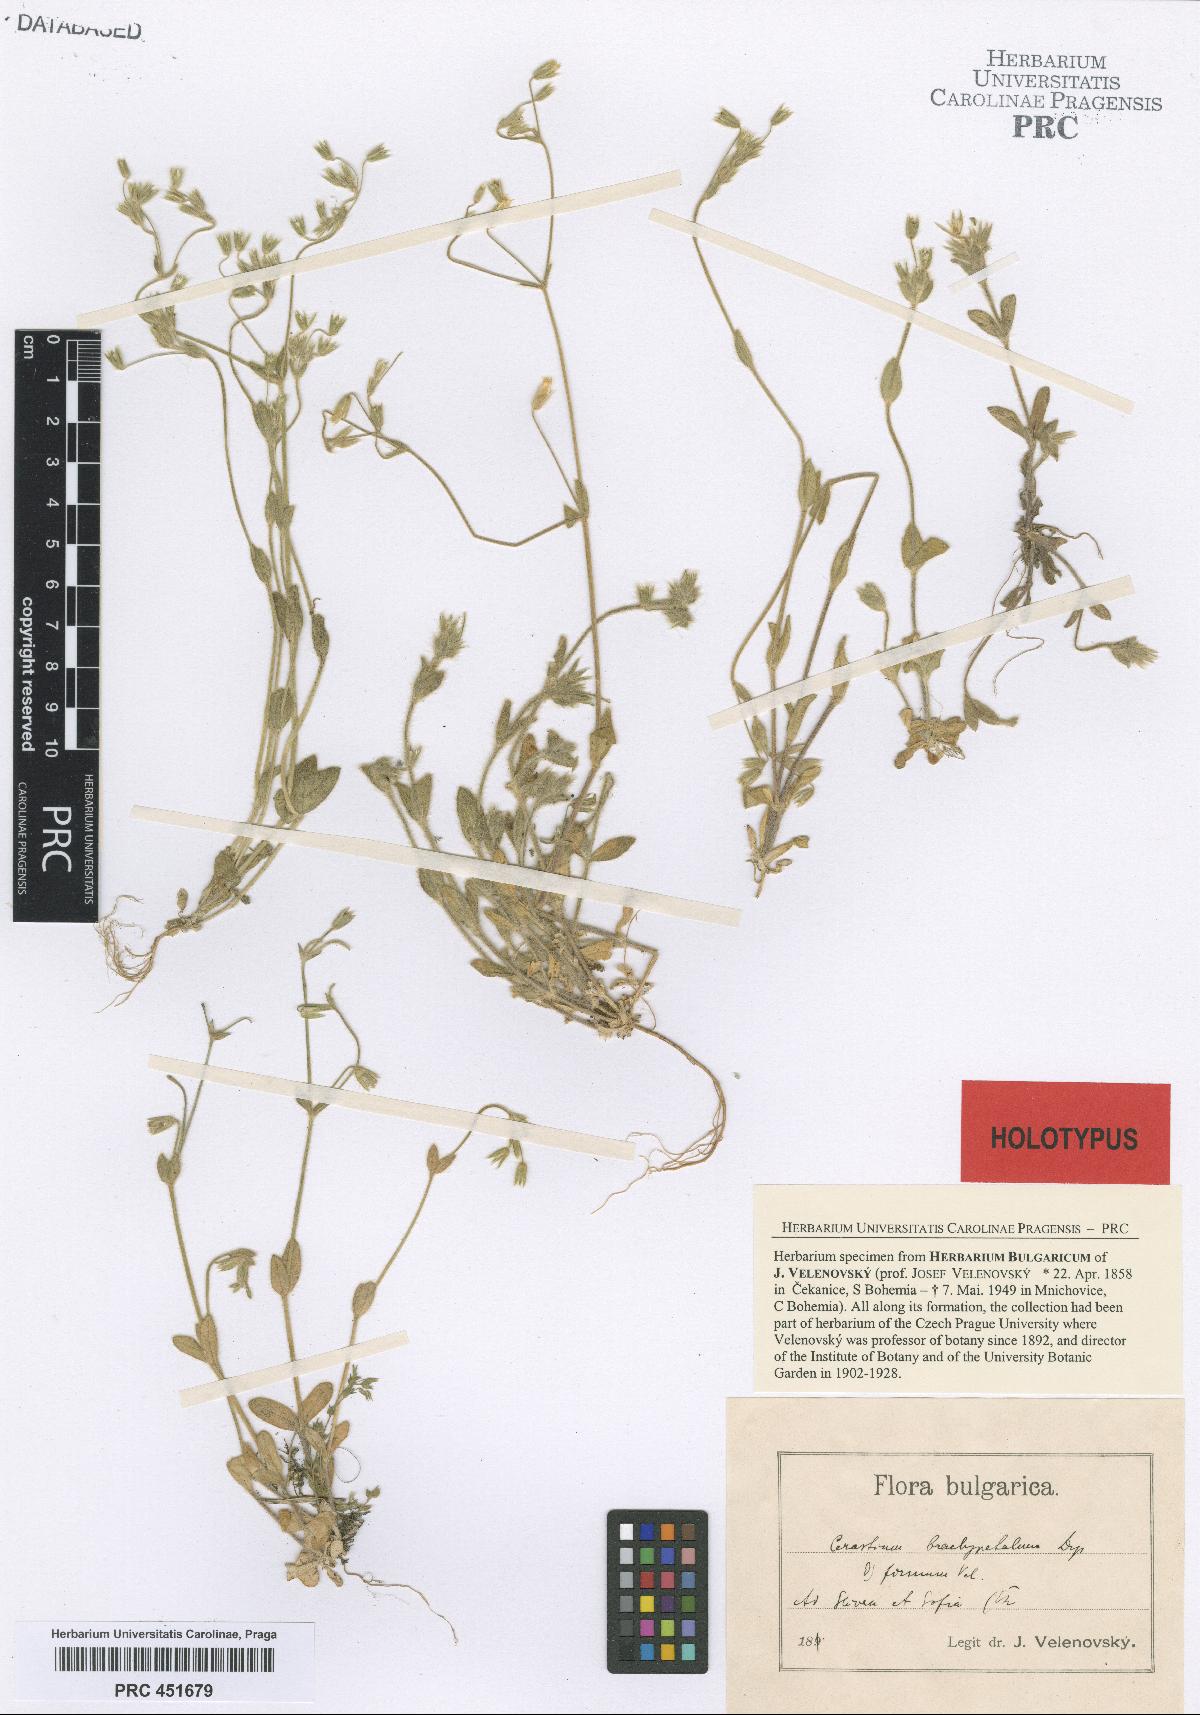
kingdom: Plantae
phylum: Tracheophyta
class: Magnoliopsida
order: Caryophyllales
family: Caryophyllaceae
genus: Cerastium
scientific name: Cerastium brachypetalum
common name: Grey mouse-ear
